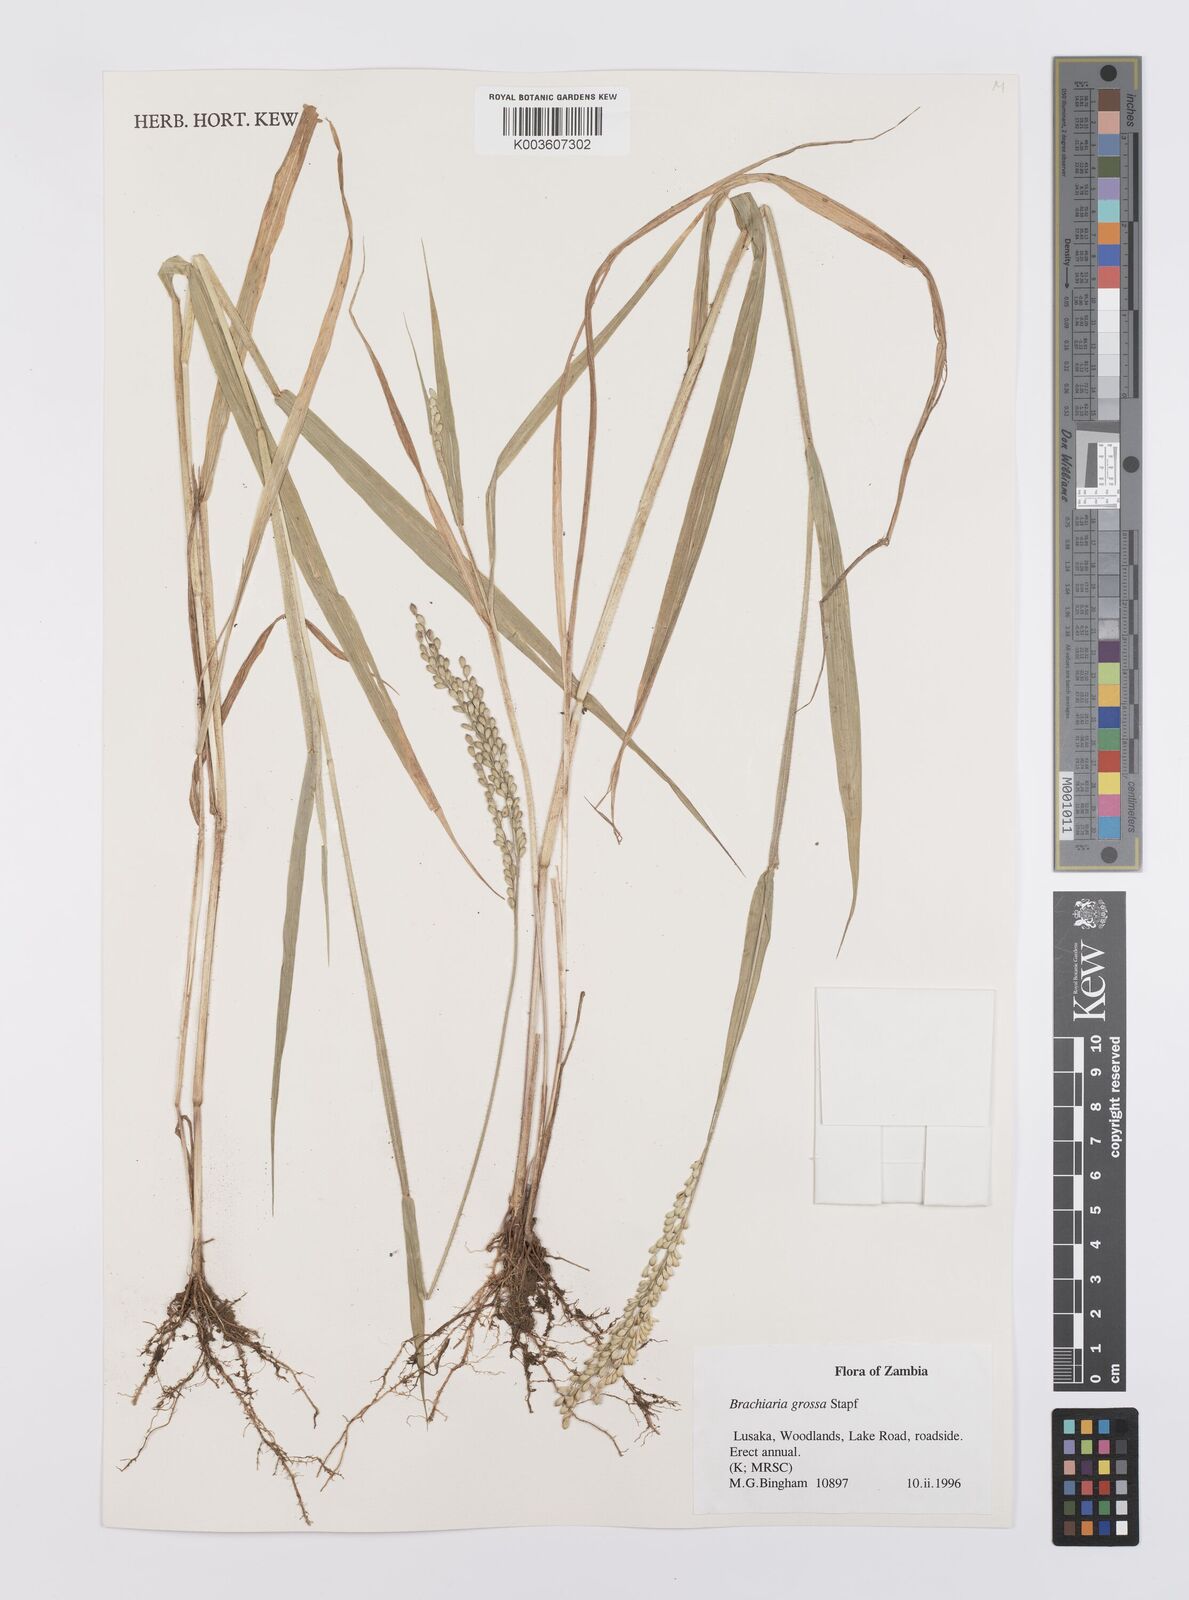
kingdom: Plantae
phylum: Tracheophyta
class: Liliopsida
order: Poales
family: Poaceae
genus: Urochloa
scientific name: Urochloa Brachiaria grossa
